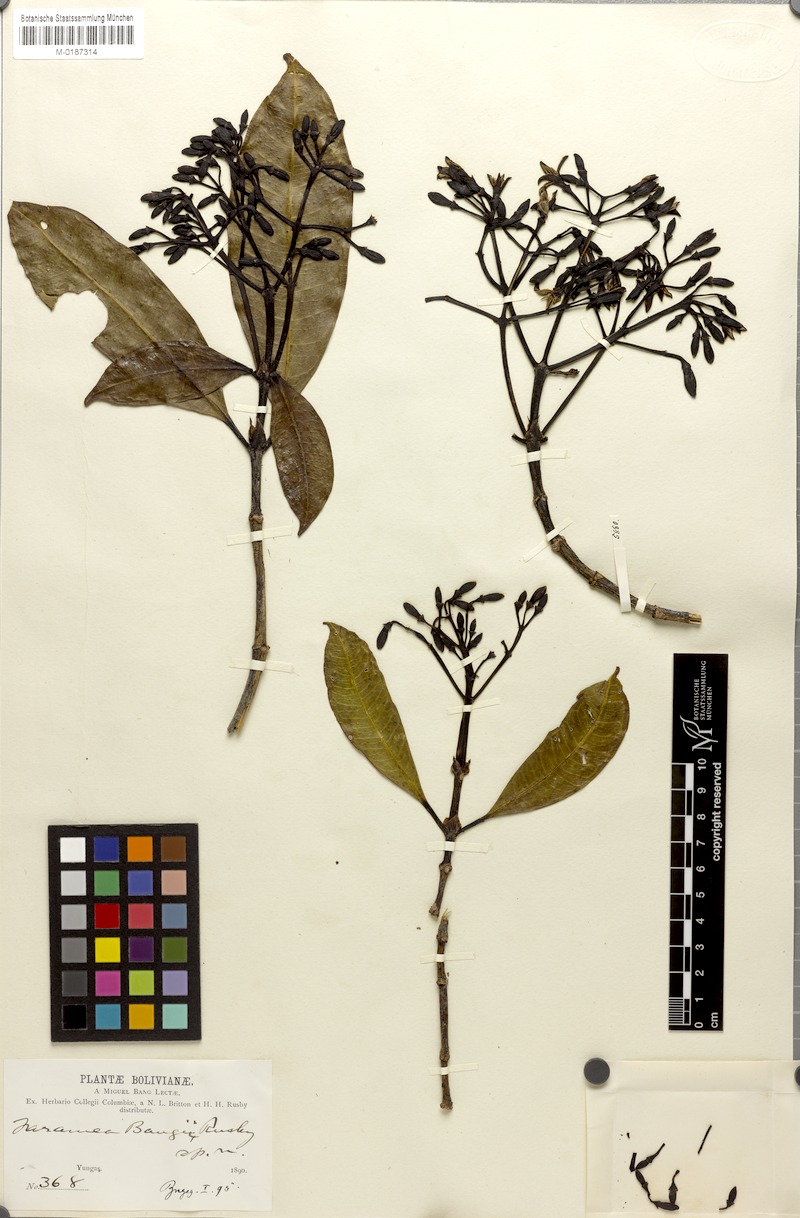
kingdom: Plantae
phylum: Tracheophyta
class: Magnoliopsida
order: Gentianales
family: Rubiaceae
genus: Faramea
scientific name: Faramea bangii
